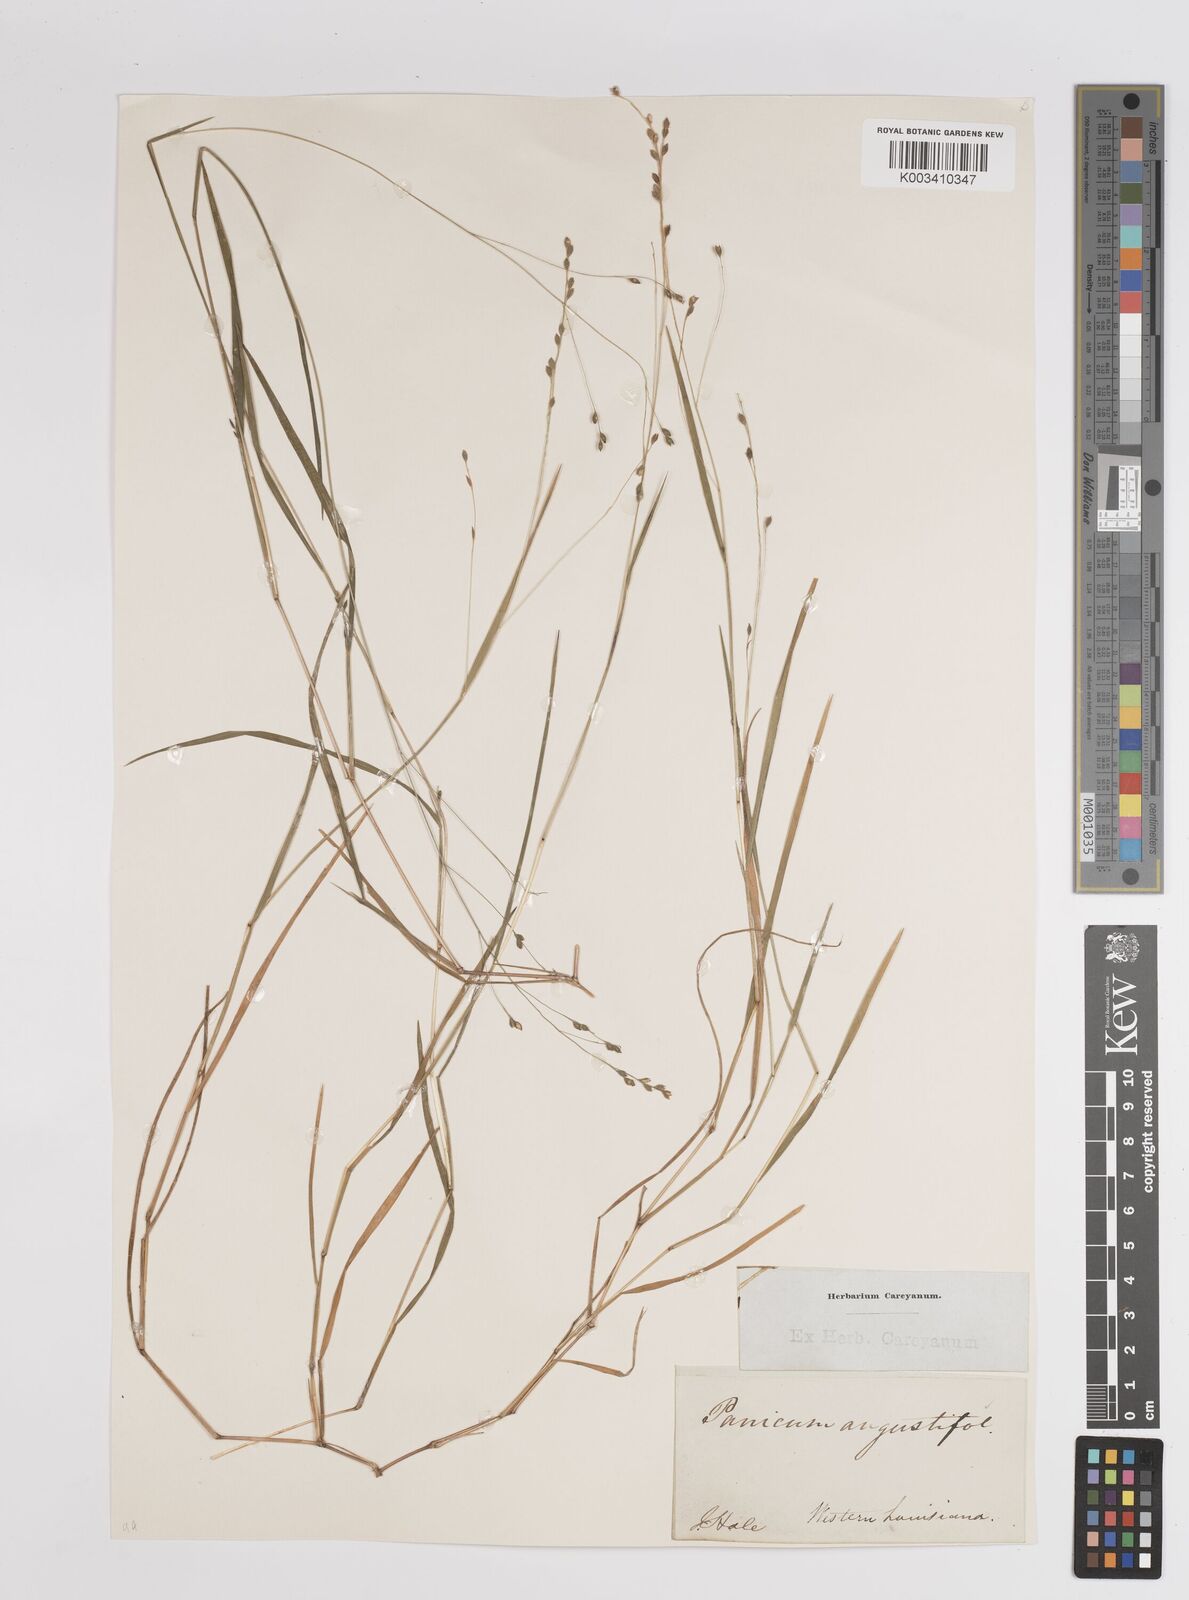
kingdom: Plantae
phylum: Tracheophyta
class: Liliopsida
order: Poales
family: Poaceae
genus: Dichanthelium
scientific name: Dichanthelium angustifolium
